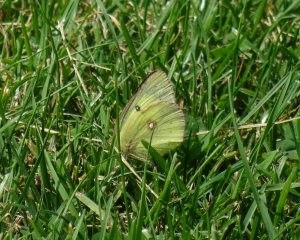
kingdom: Animalia
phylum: Arthropoda
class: Insecta
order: Lepidoptera
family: Pieridae
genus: Colias
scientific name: Colias philodice
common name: Clouded Sulphur
